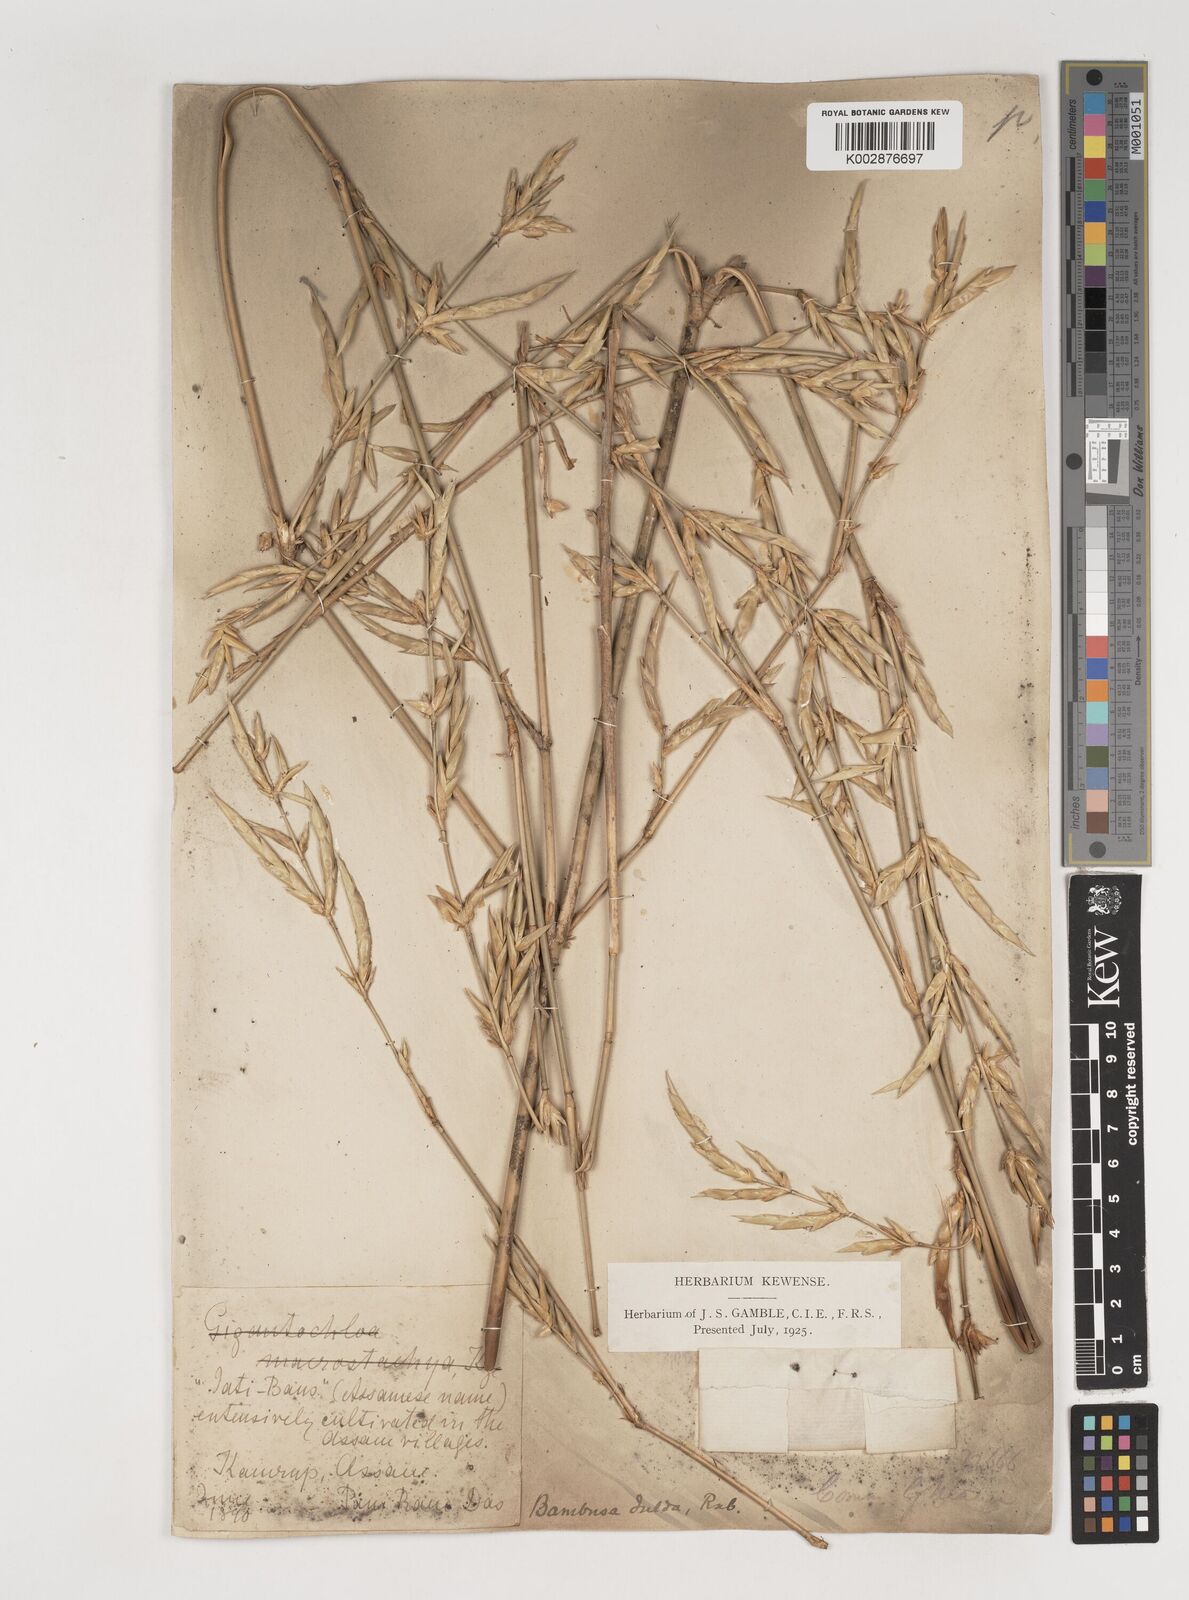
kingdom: Plantae
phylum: Tracheophyta
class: Liliopsida
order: Poales
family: Poaceae
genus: Bambusa
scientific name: Bambusa teres
